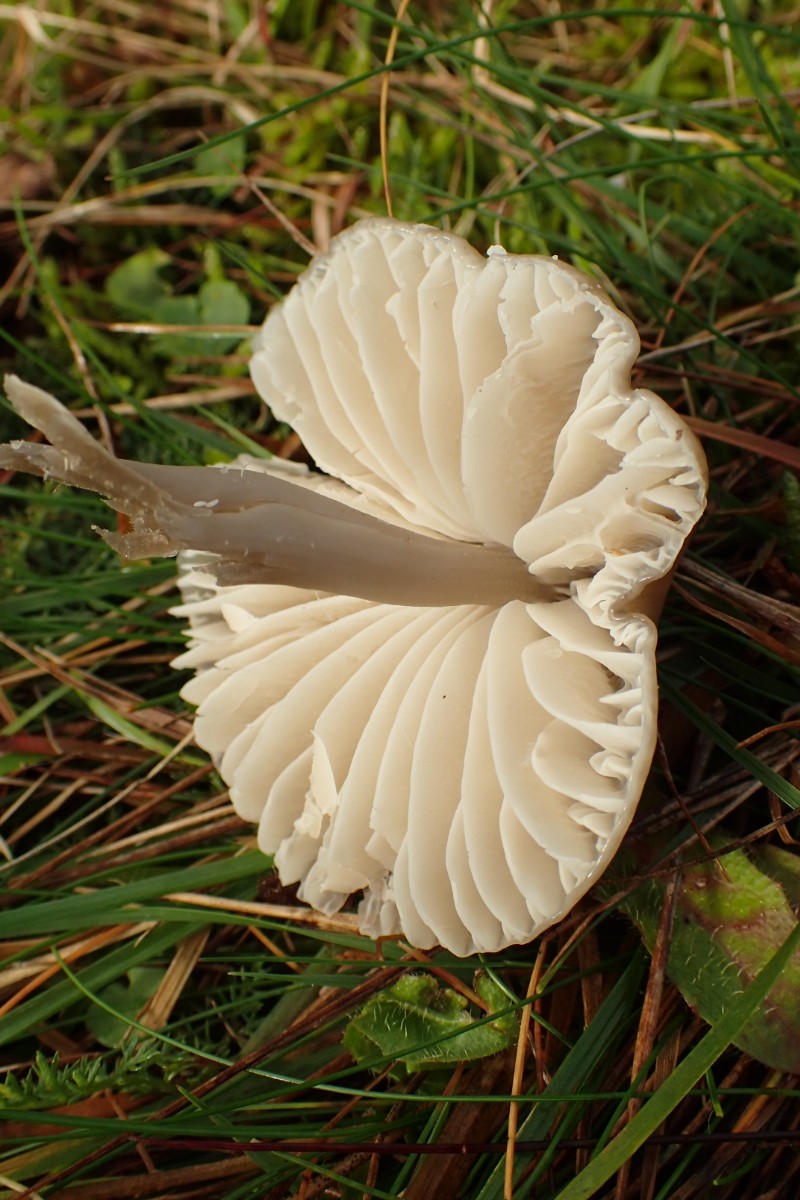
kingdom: Fungi
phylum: Basidiomycota
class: Agaricomycetes
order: Agaricales
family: Hygrophoraceae
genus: Gliophorus
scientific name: Gliophorus irrigatus
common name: slimet vokshat
